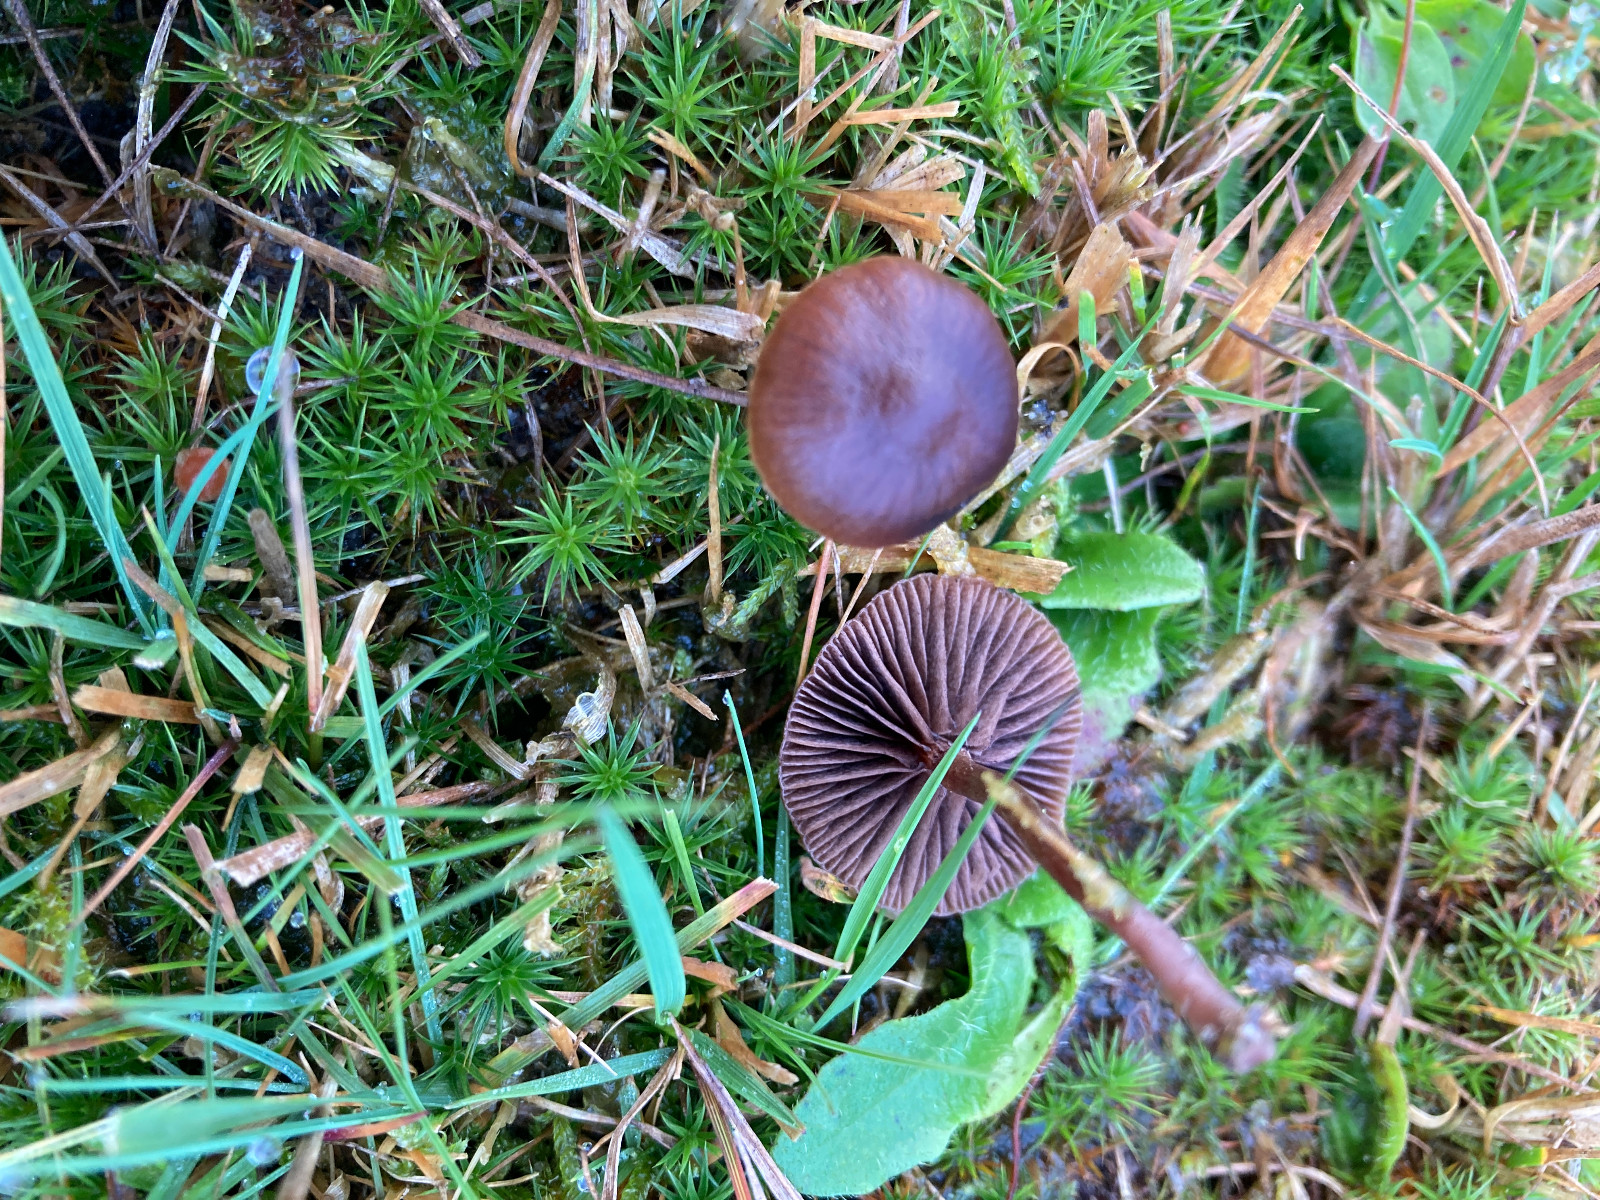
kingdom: Fungi
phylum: Basidiomycota
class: Agaricomycetes
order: Agaricales
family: Strophariaceae
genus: Deconica
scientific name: Deconica montana
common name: rødbrun stråhat
